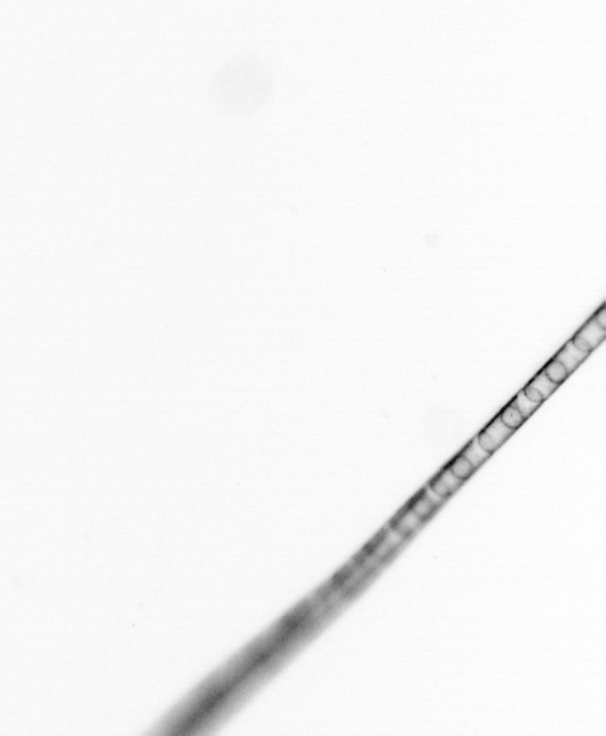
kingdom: Chromista
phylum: Ochrophyta
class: Bacillariophyceae
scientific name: Bacillariophyceae
